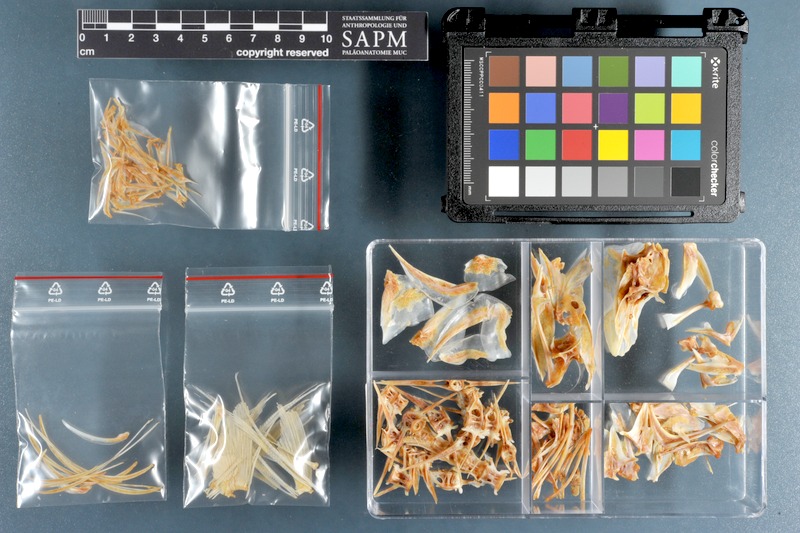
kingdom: Animalia
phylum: Chordata
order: Perciformes
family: Carangidae
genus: Carangoides
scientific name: Carangoides bajad
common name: Orangespotted trevally
